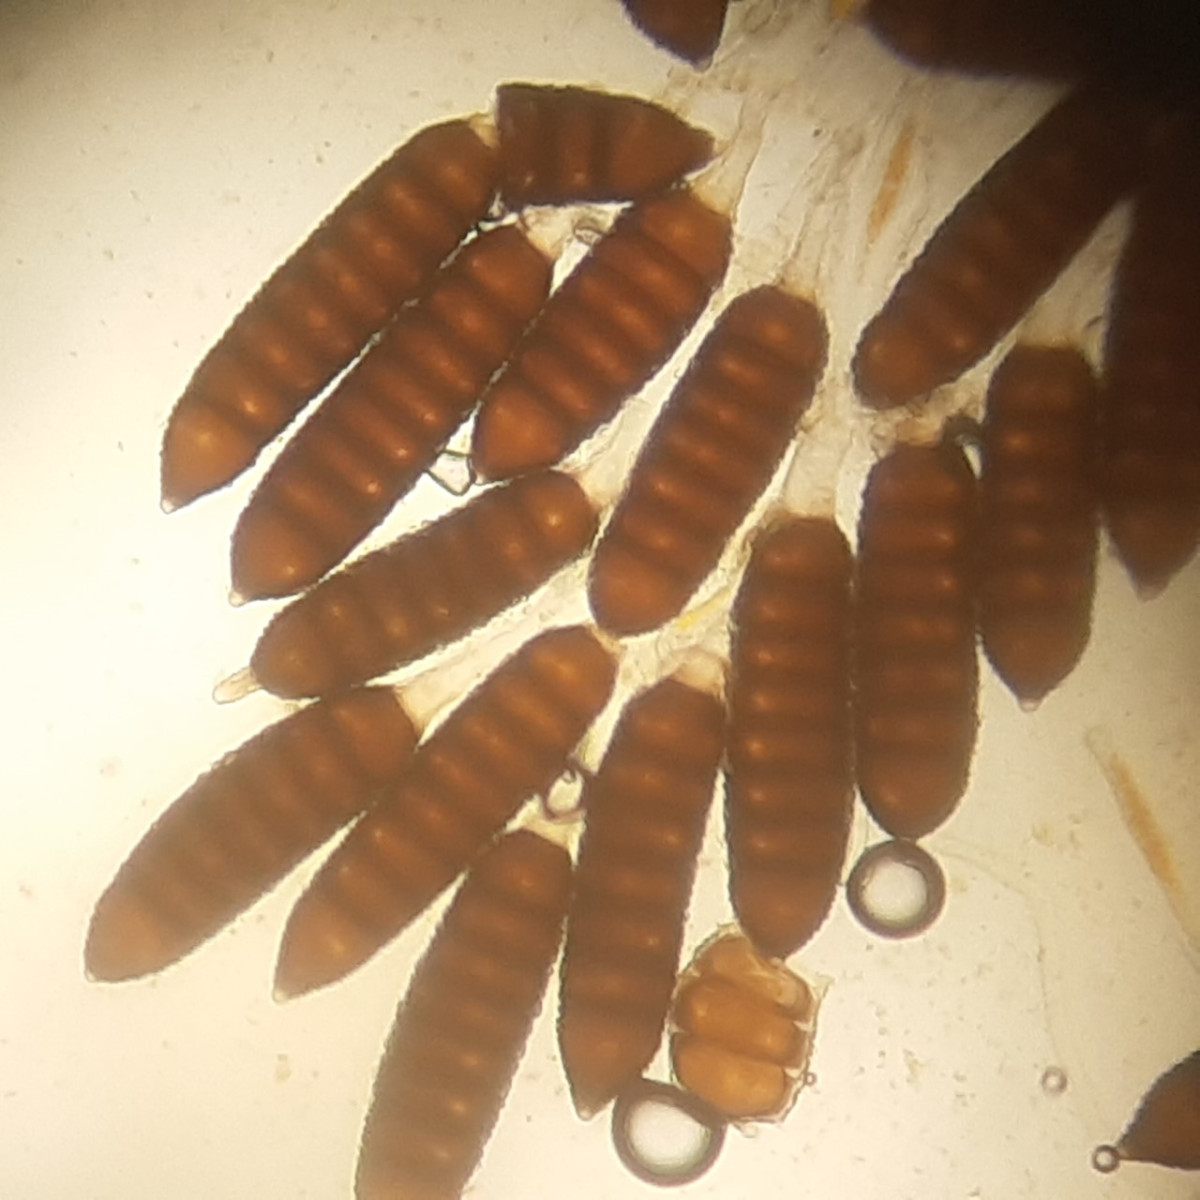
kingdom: Fungi
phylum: Basidiomycota
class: Pucciniomycetes
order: Pucciniales
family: Phragmidiaceae
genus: Phragmidium
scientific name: Phragmidium rubi-idaei
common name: hindbær-flercellerust
